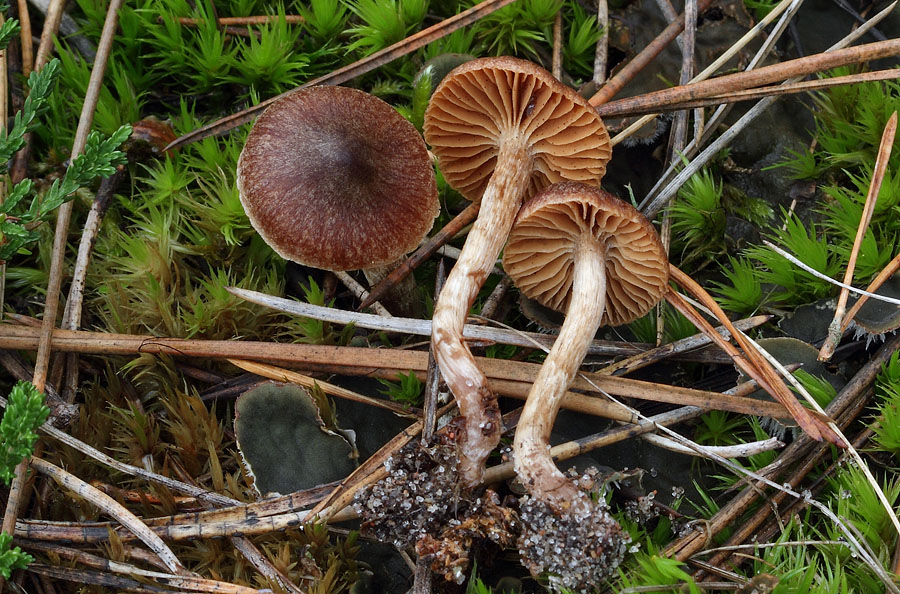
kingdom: Fungi
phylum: Basidiomycota
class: Agaricomycetes
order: Agaricales
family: Cortinariaceae
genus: Cortinarius
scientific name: Cortinarius hispanicus
